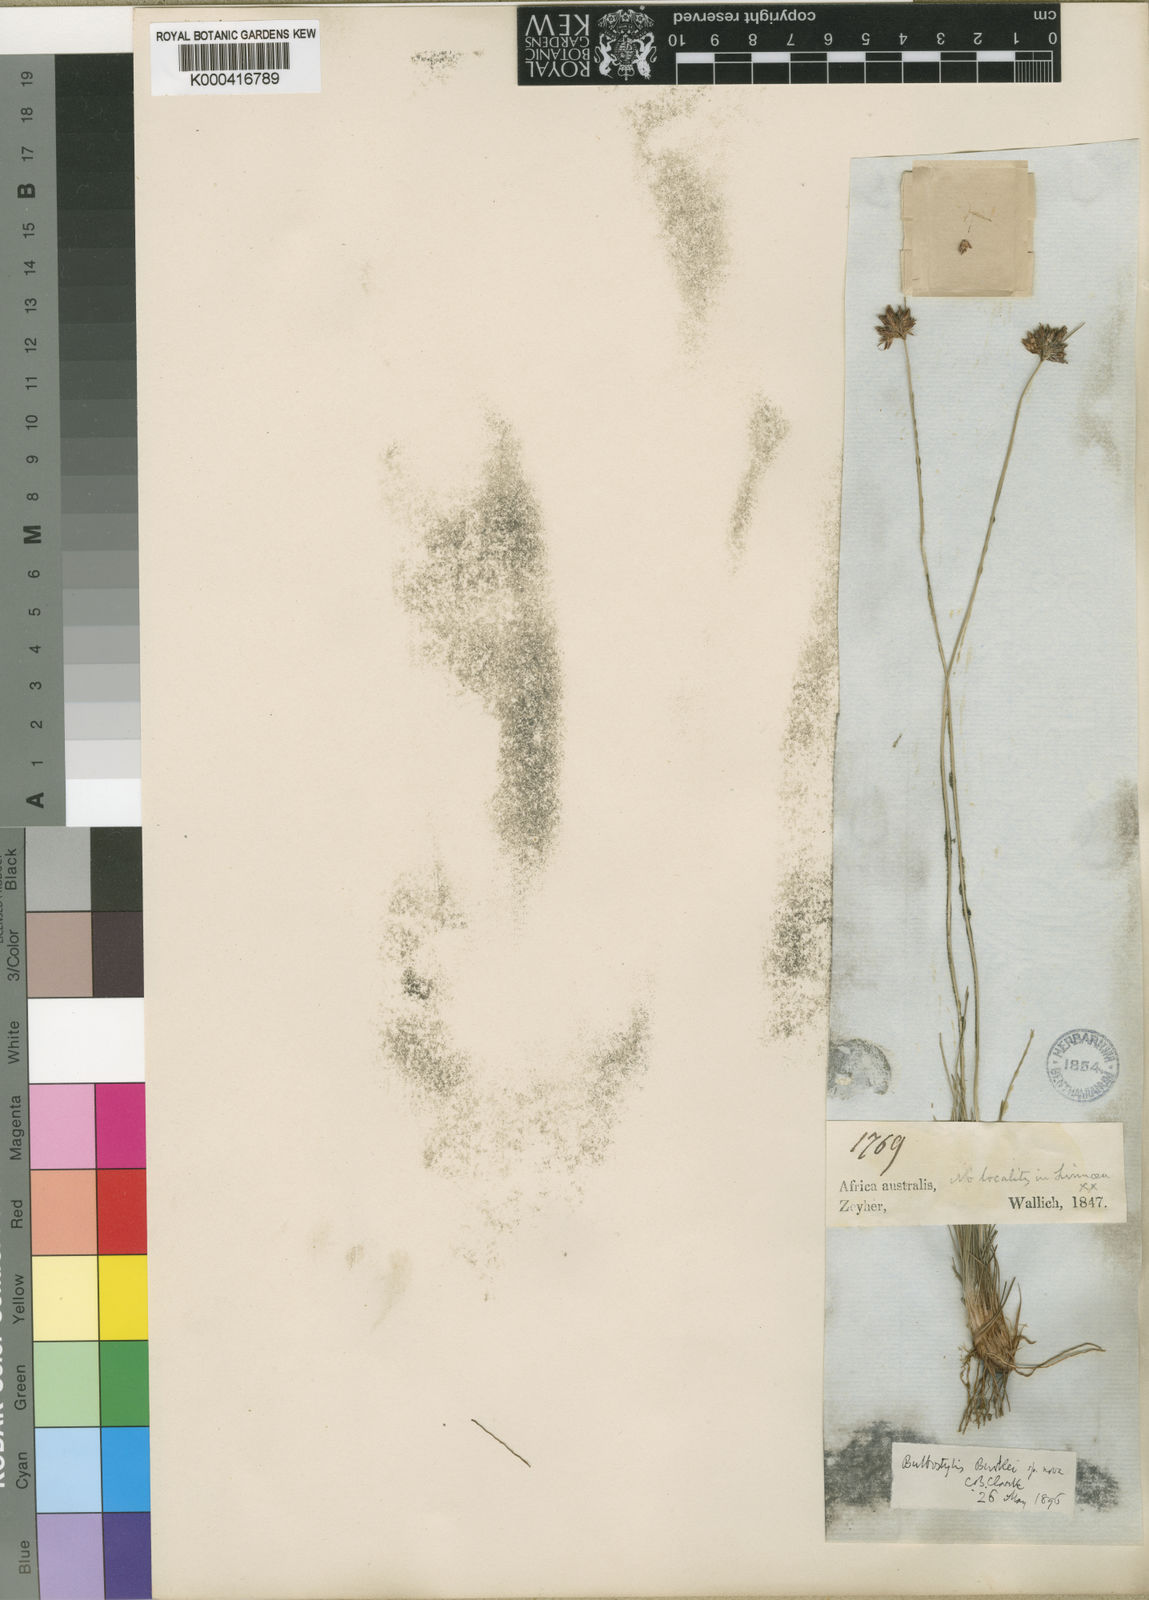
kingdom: Plantae
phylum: Tracheophyta
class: Liliopsida
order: Poales
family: Cyperaceae
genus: Bulbostylis
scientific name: Bulbostylis contexta
